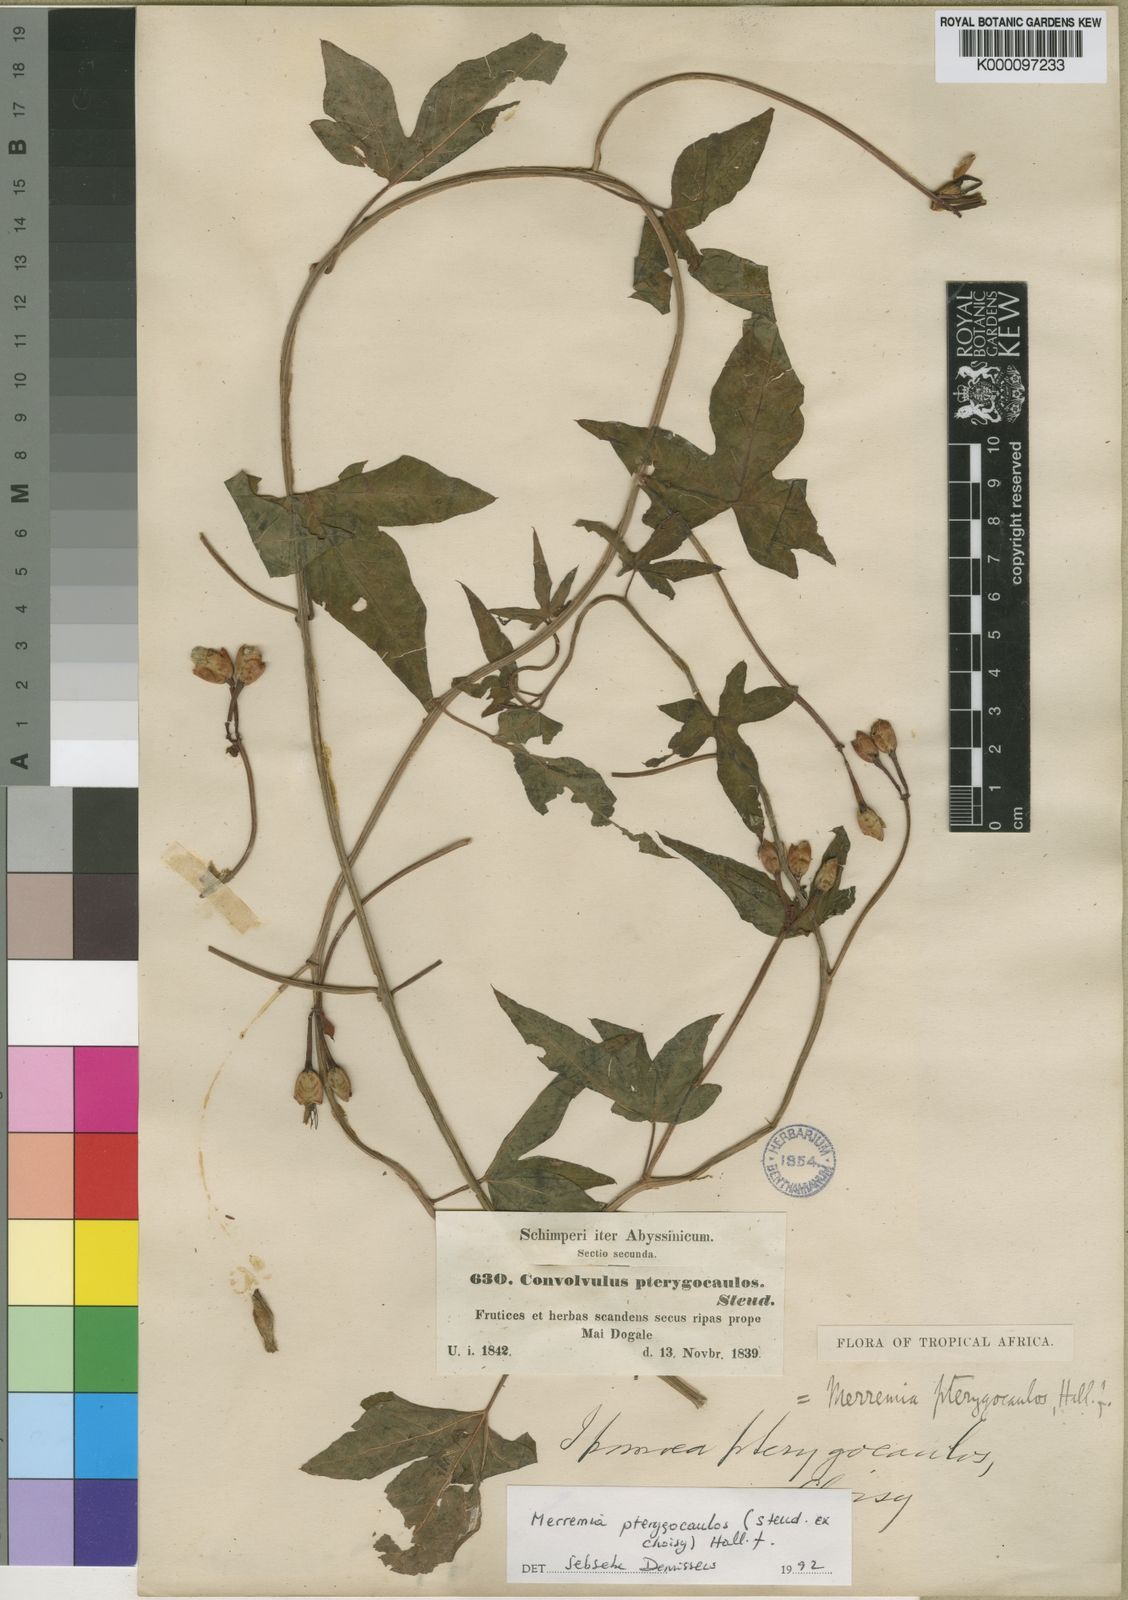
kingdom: Plantae
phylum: Tracheophyta
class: Magnoliopsida
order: Solanales
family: Convolvulaceae
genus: Merremia
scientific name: Merremia pterygocaulos
